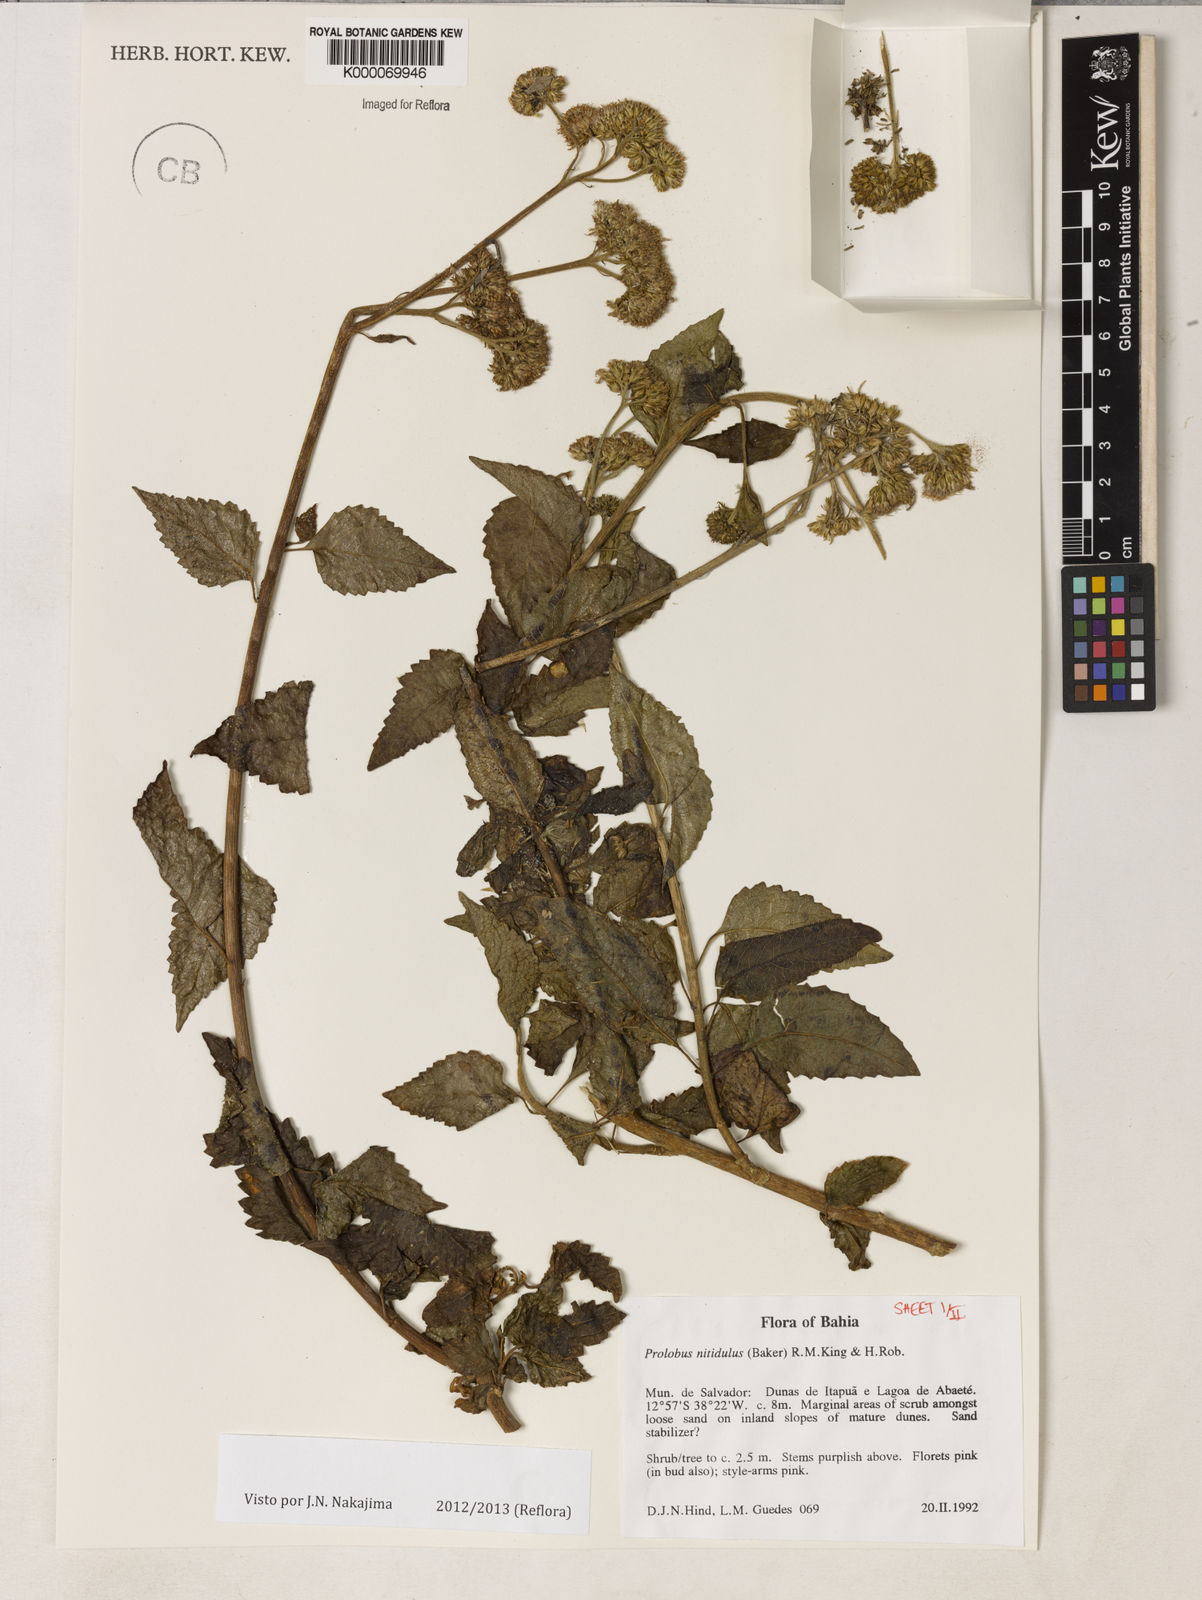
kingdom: Plantae
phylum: Tracheophyta
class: Magnoliopsida
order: Asterales
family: Asteraceae
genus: Prolobus
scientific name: Prolobus nitidulus
